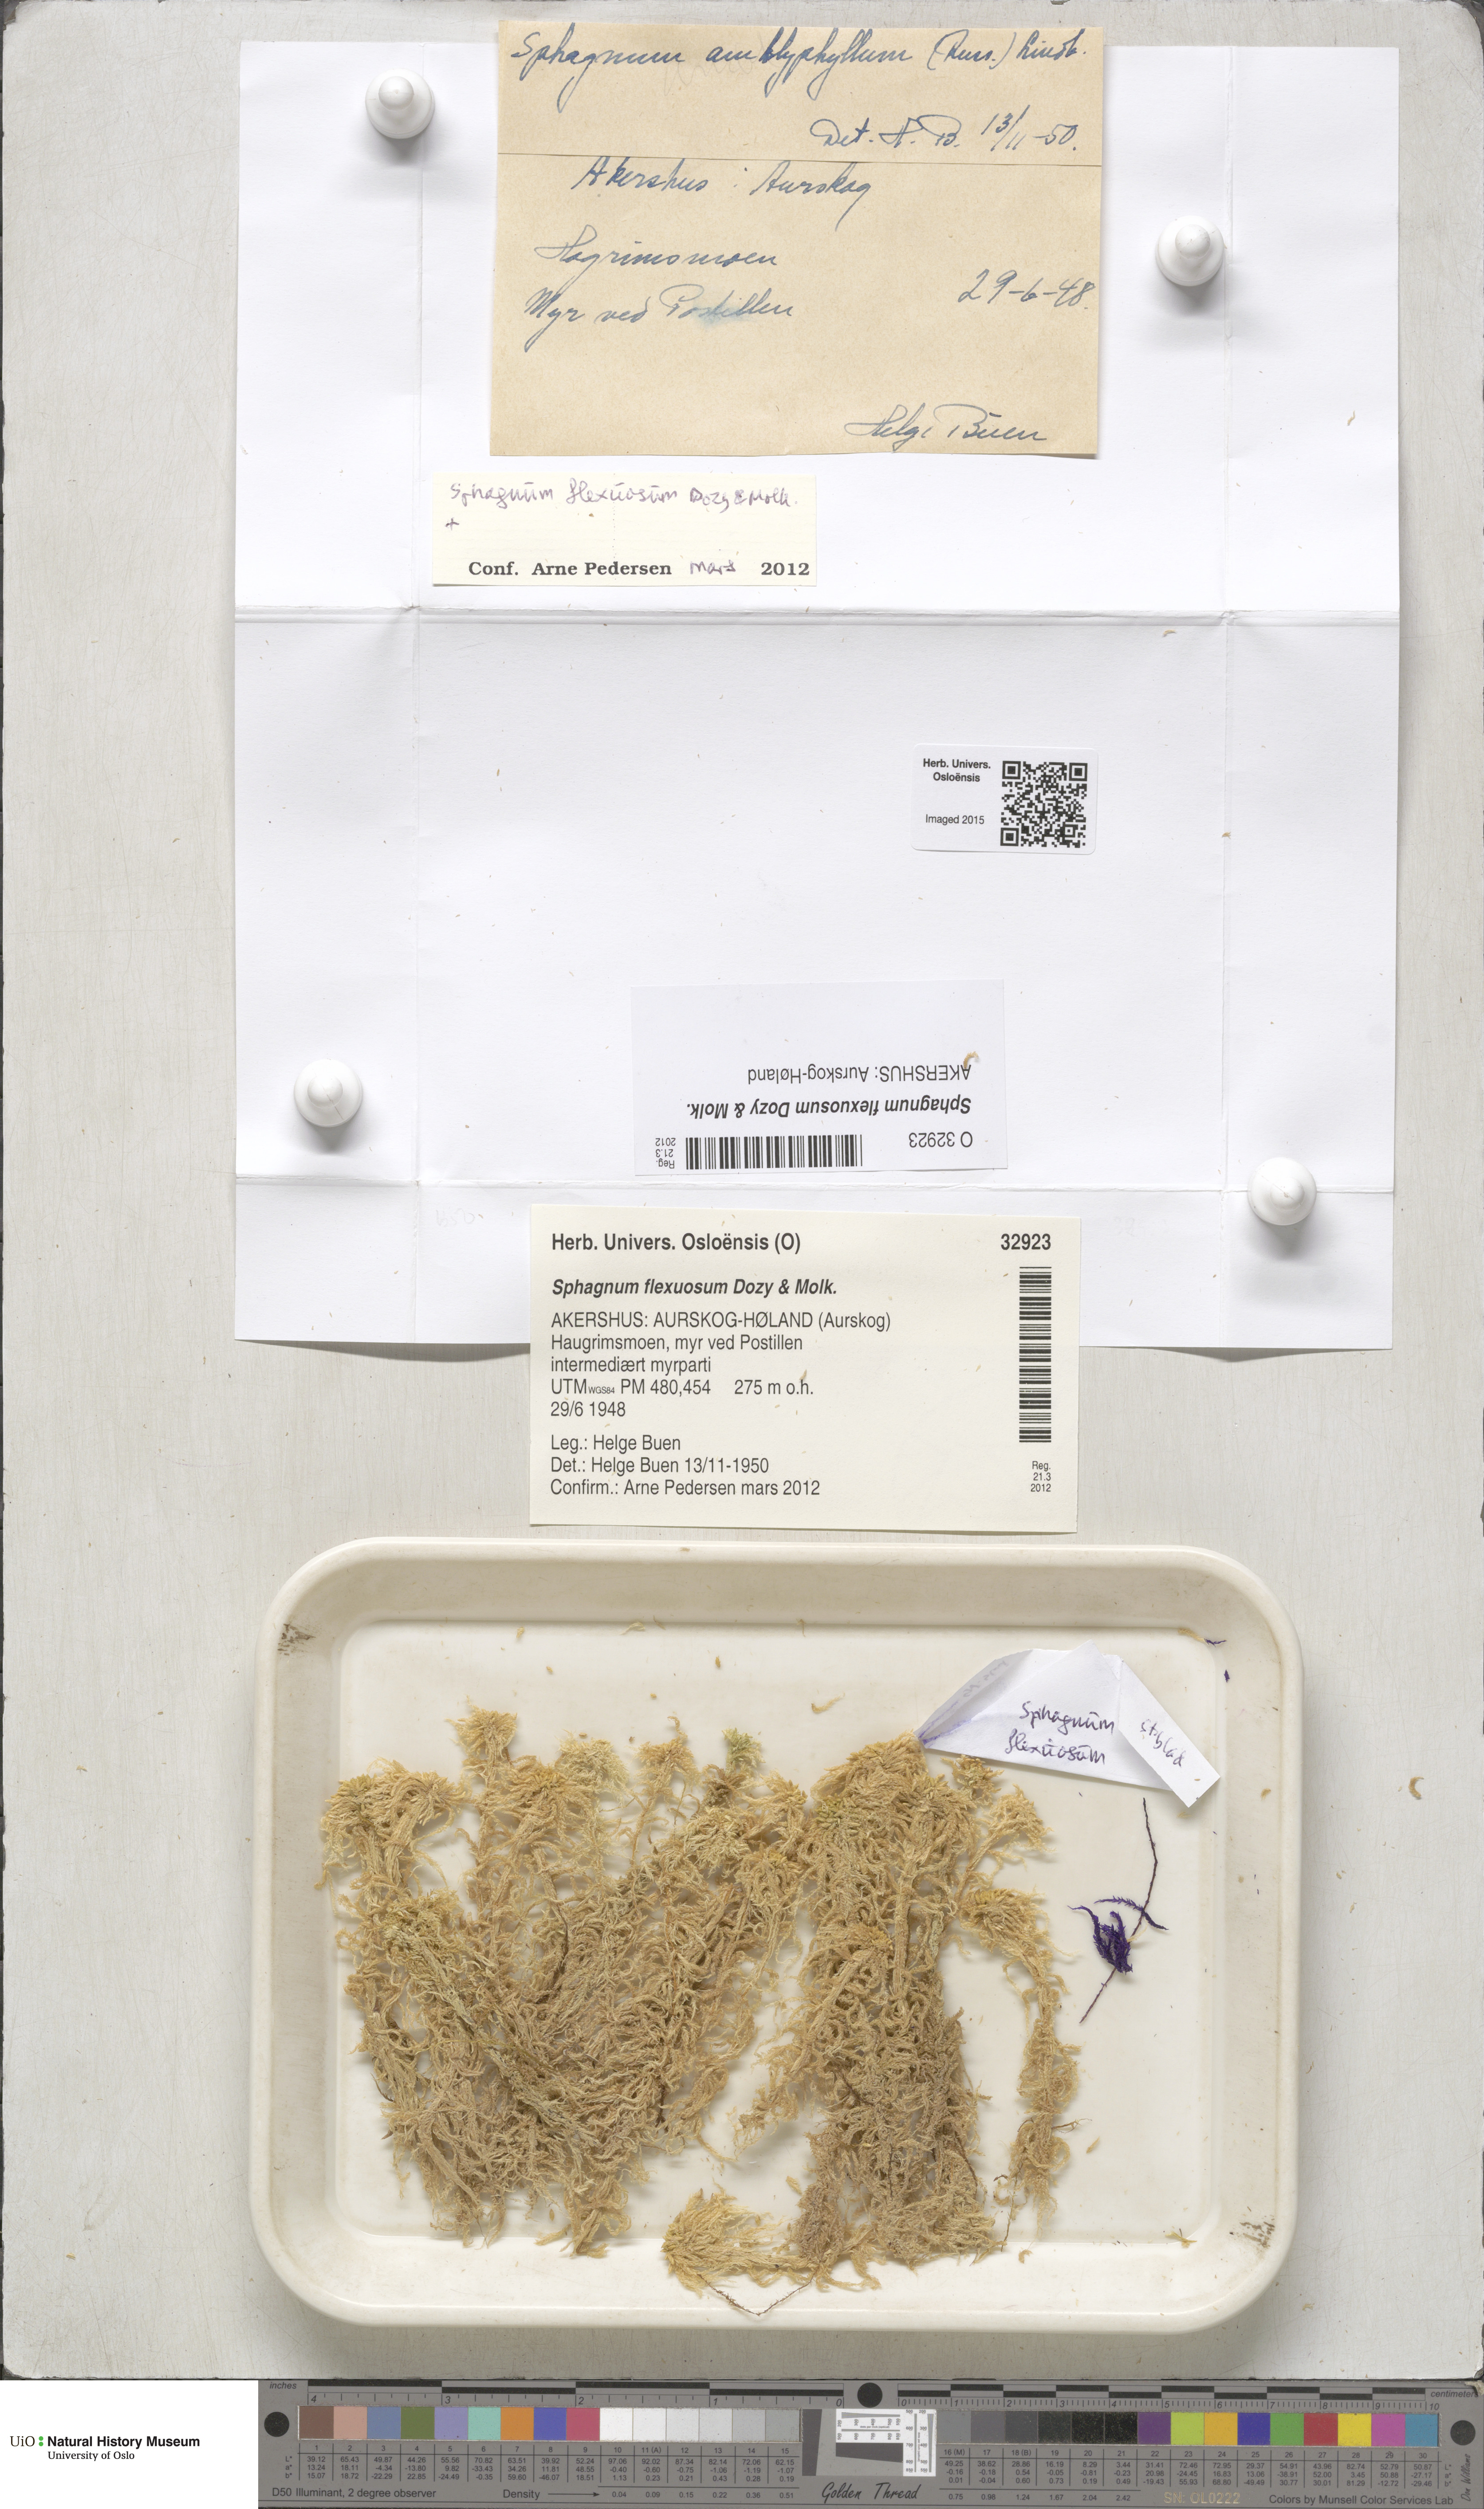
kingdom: Plantae
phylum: Bryophyta
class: Sphagnopsida
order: Sphagnales
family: Sphagnaceae
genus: Sphagnum
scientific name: Sphagnum flexuosum
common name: Flexible peat moss
